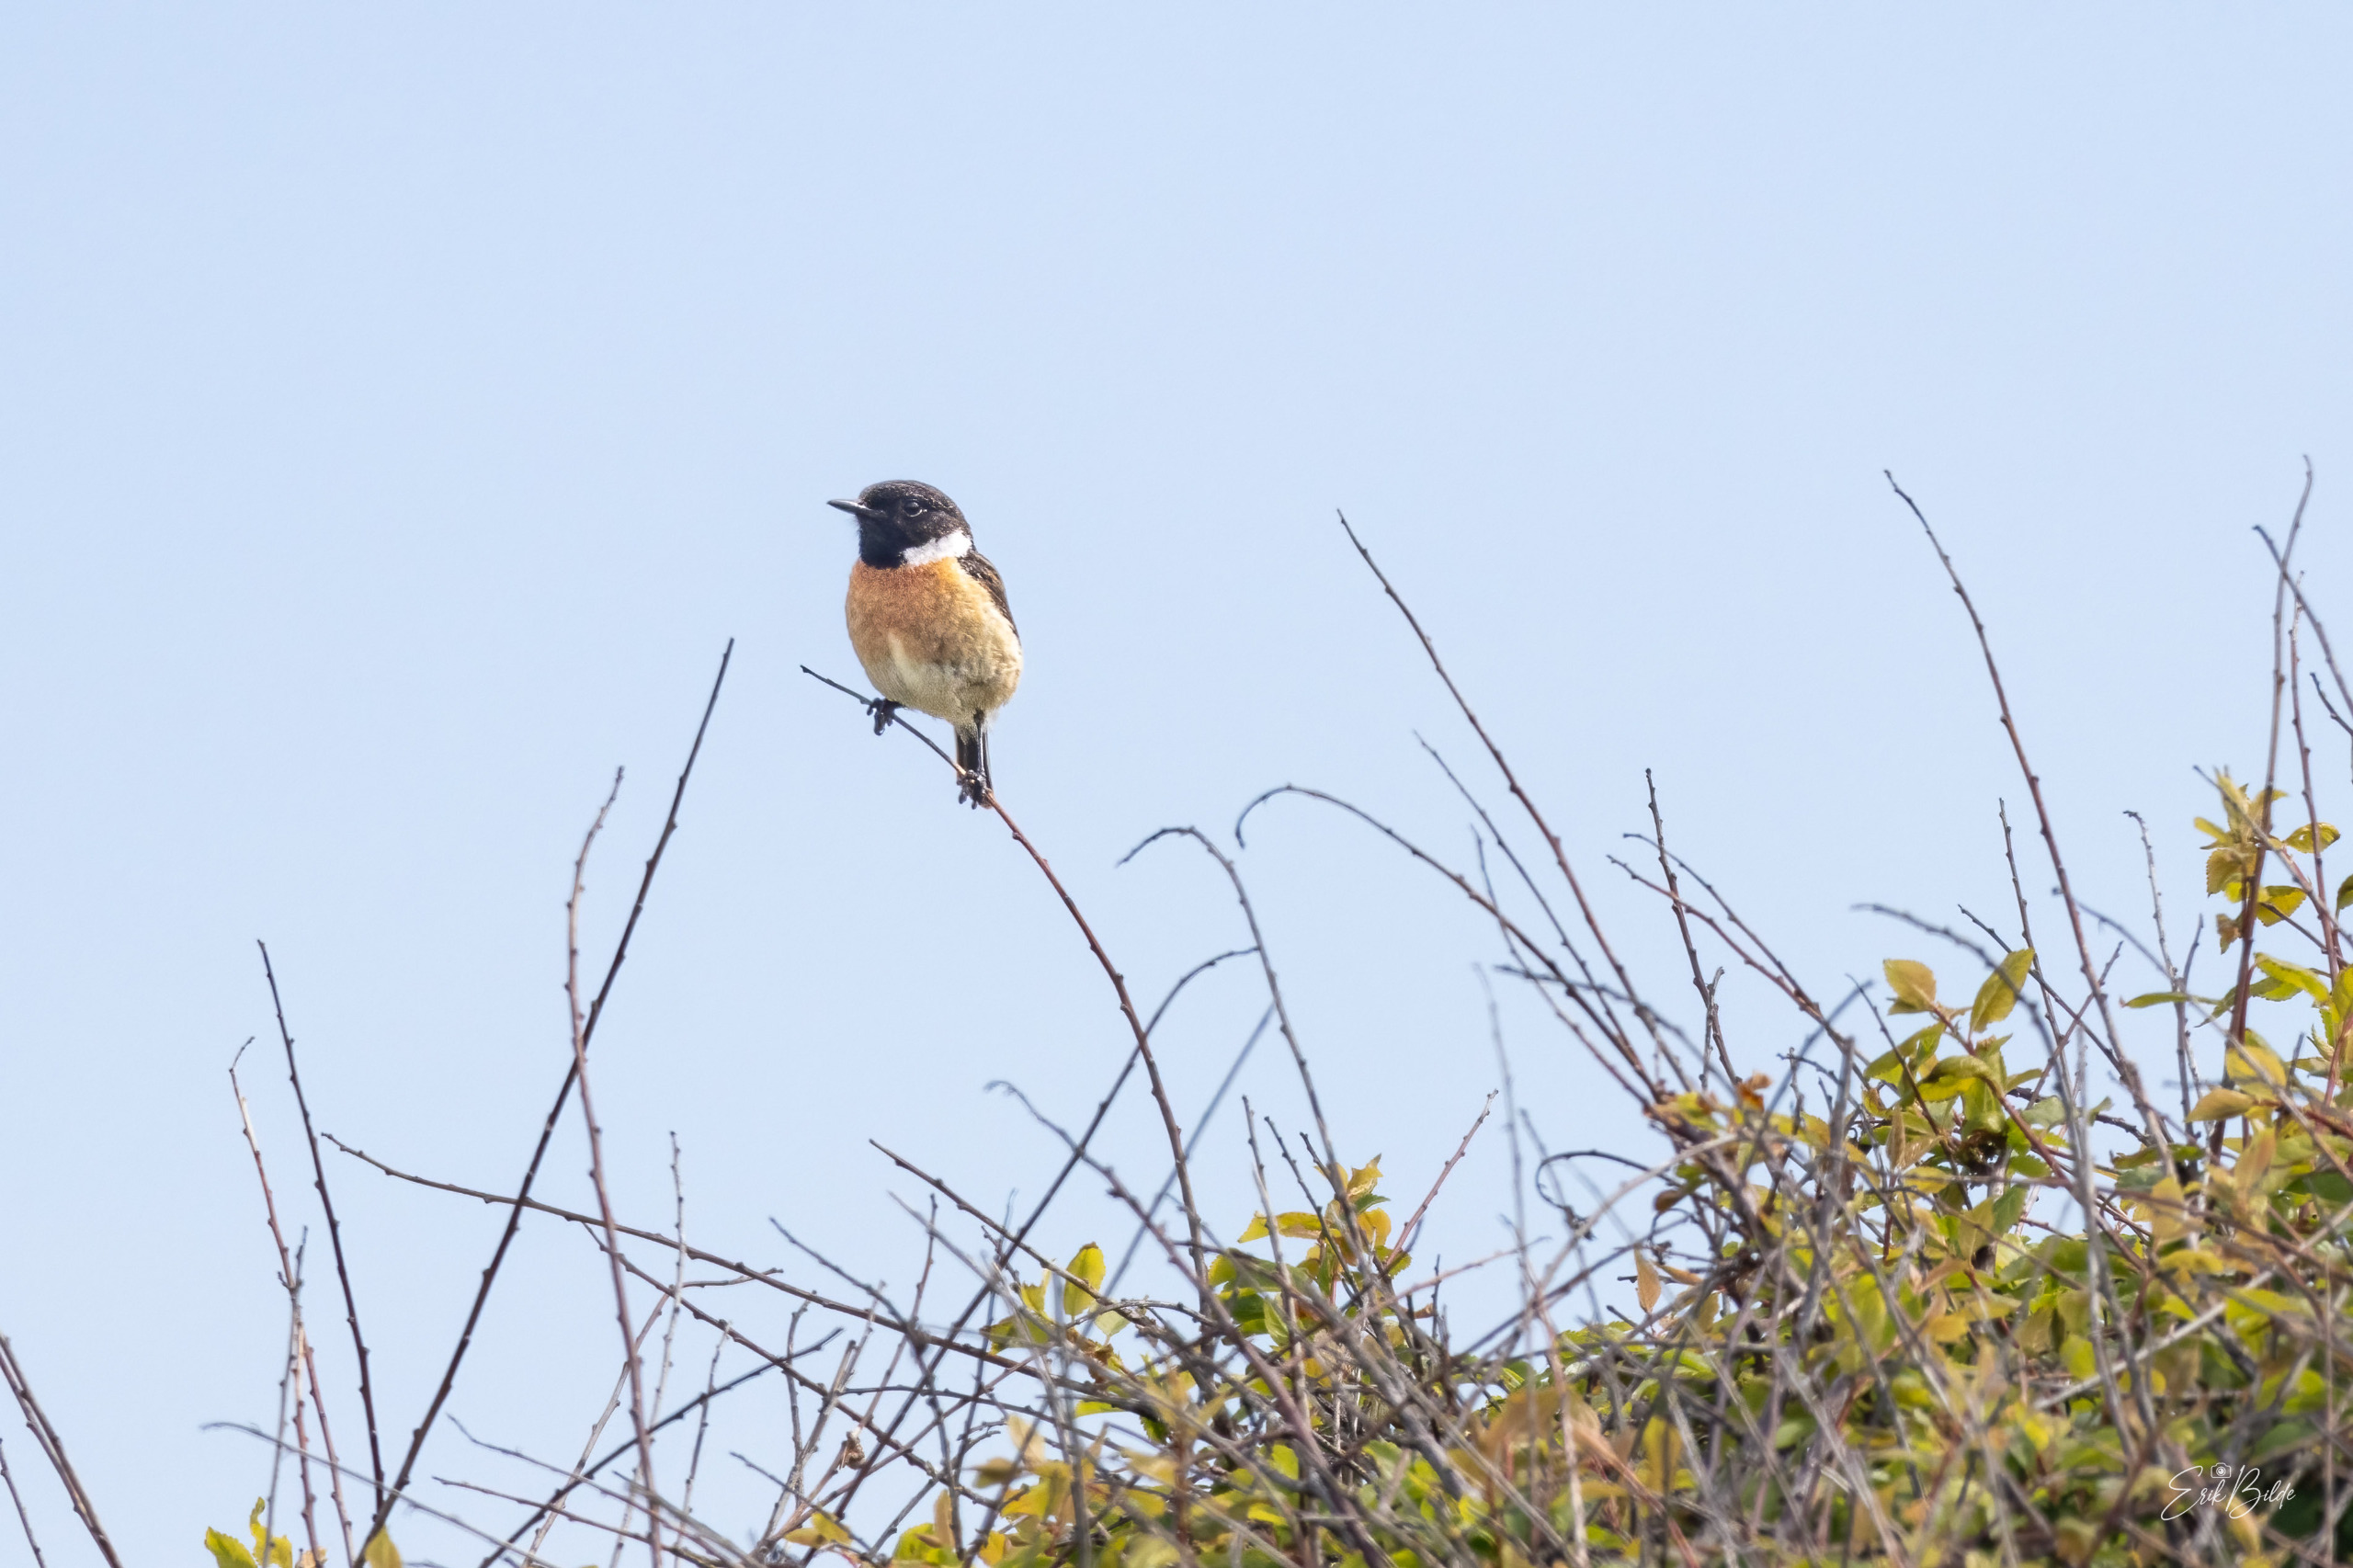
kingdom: Animalia
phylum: Chordata
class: Aves
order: Passeriformes
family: Muscicapidae
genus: Saxicola
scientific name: Saxicola rubicola
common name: Sortstrubet bynkefugl
